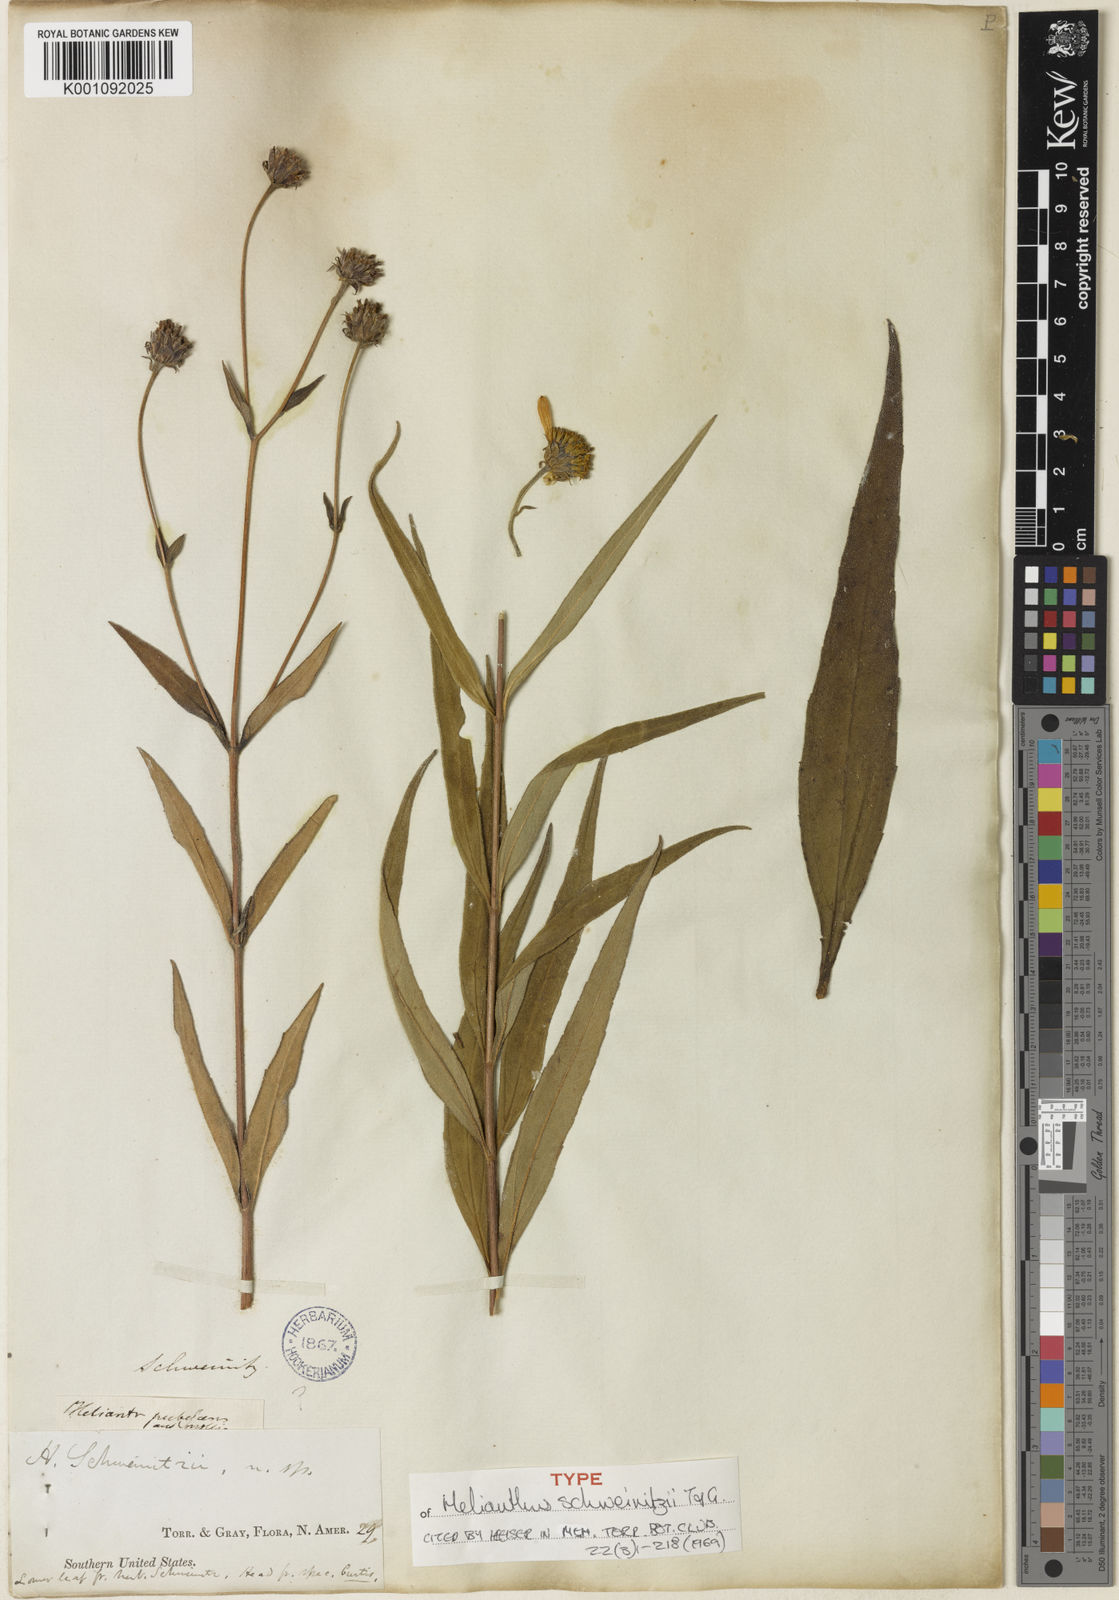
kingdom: Plantae
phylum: Tracheophyta
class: Magnoliopsida
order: Asterales
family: Asteraceae
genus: Helianthus
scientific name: Helianthus schweinitzii
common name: Schweinitz's sunflower
